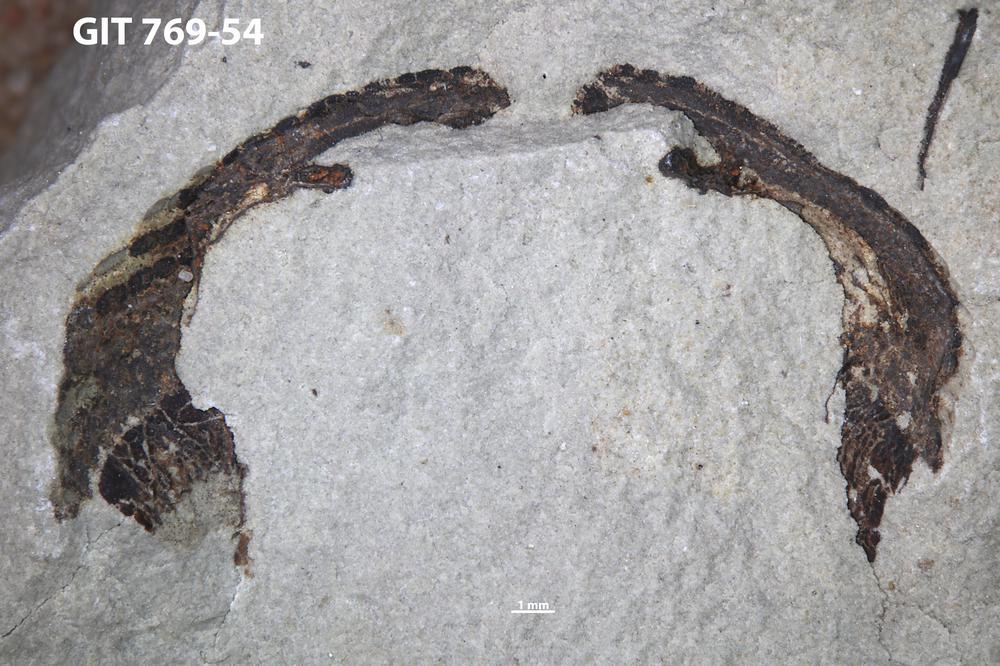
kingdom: Animalia
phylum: Chordata
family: Dartmuthiidae
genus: Dartmuthia
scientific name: Dartmuthia
